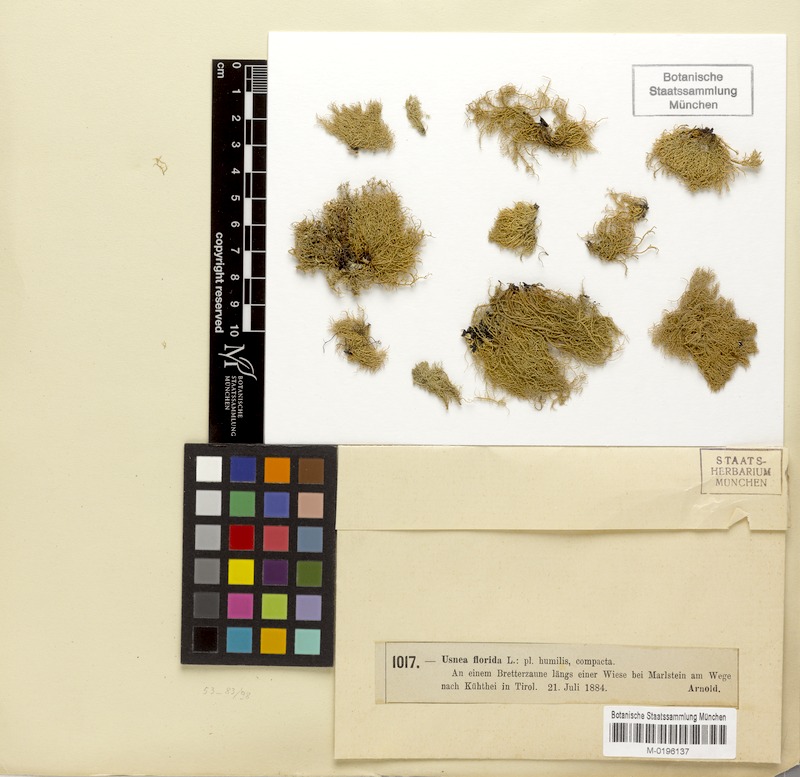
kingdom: Fungi
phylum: Ascomycota
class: Lecanoromycetes
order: Lecanorales
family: Parmeliaceae
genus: Usnea
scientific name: Usnea florida
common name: Witches' whiskers lichen
